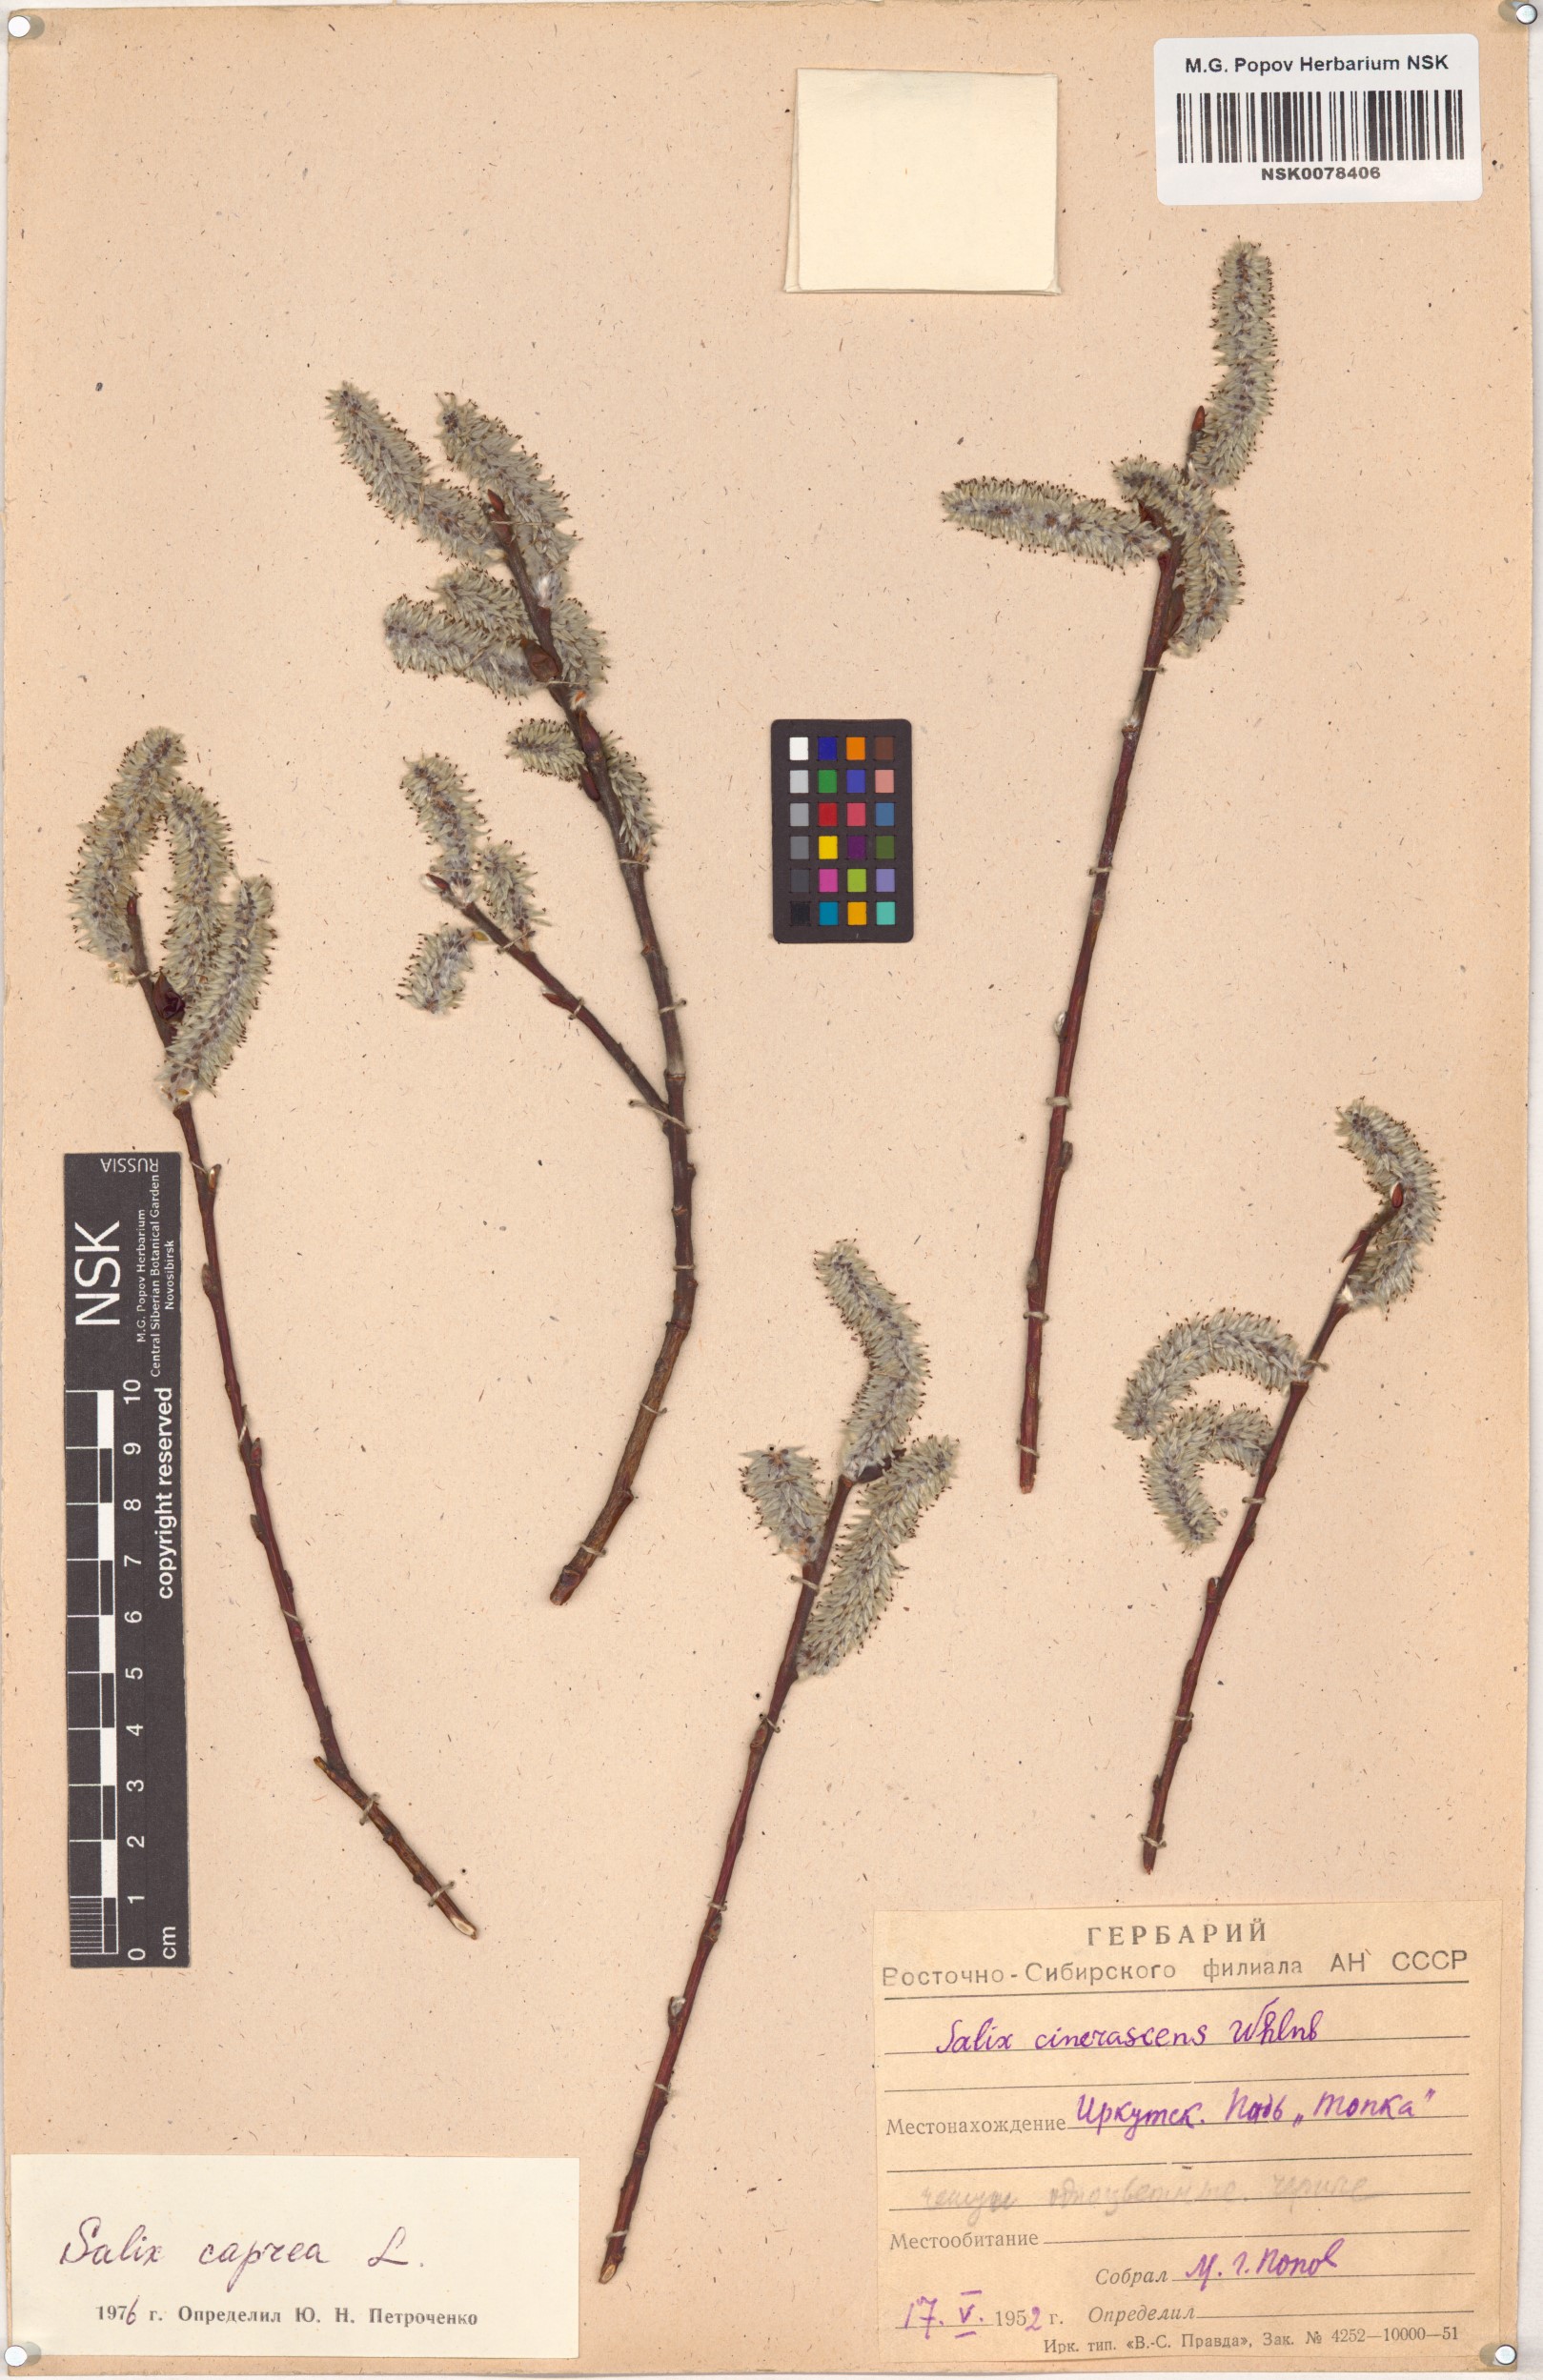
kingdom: Plantae
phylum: Tracheophyta
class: Magnoliopsida
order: Malpighiales
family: Salicaceae
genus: Salix
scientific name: Salix caprea
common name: Goat willow
